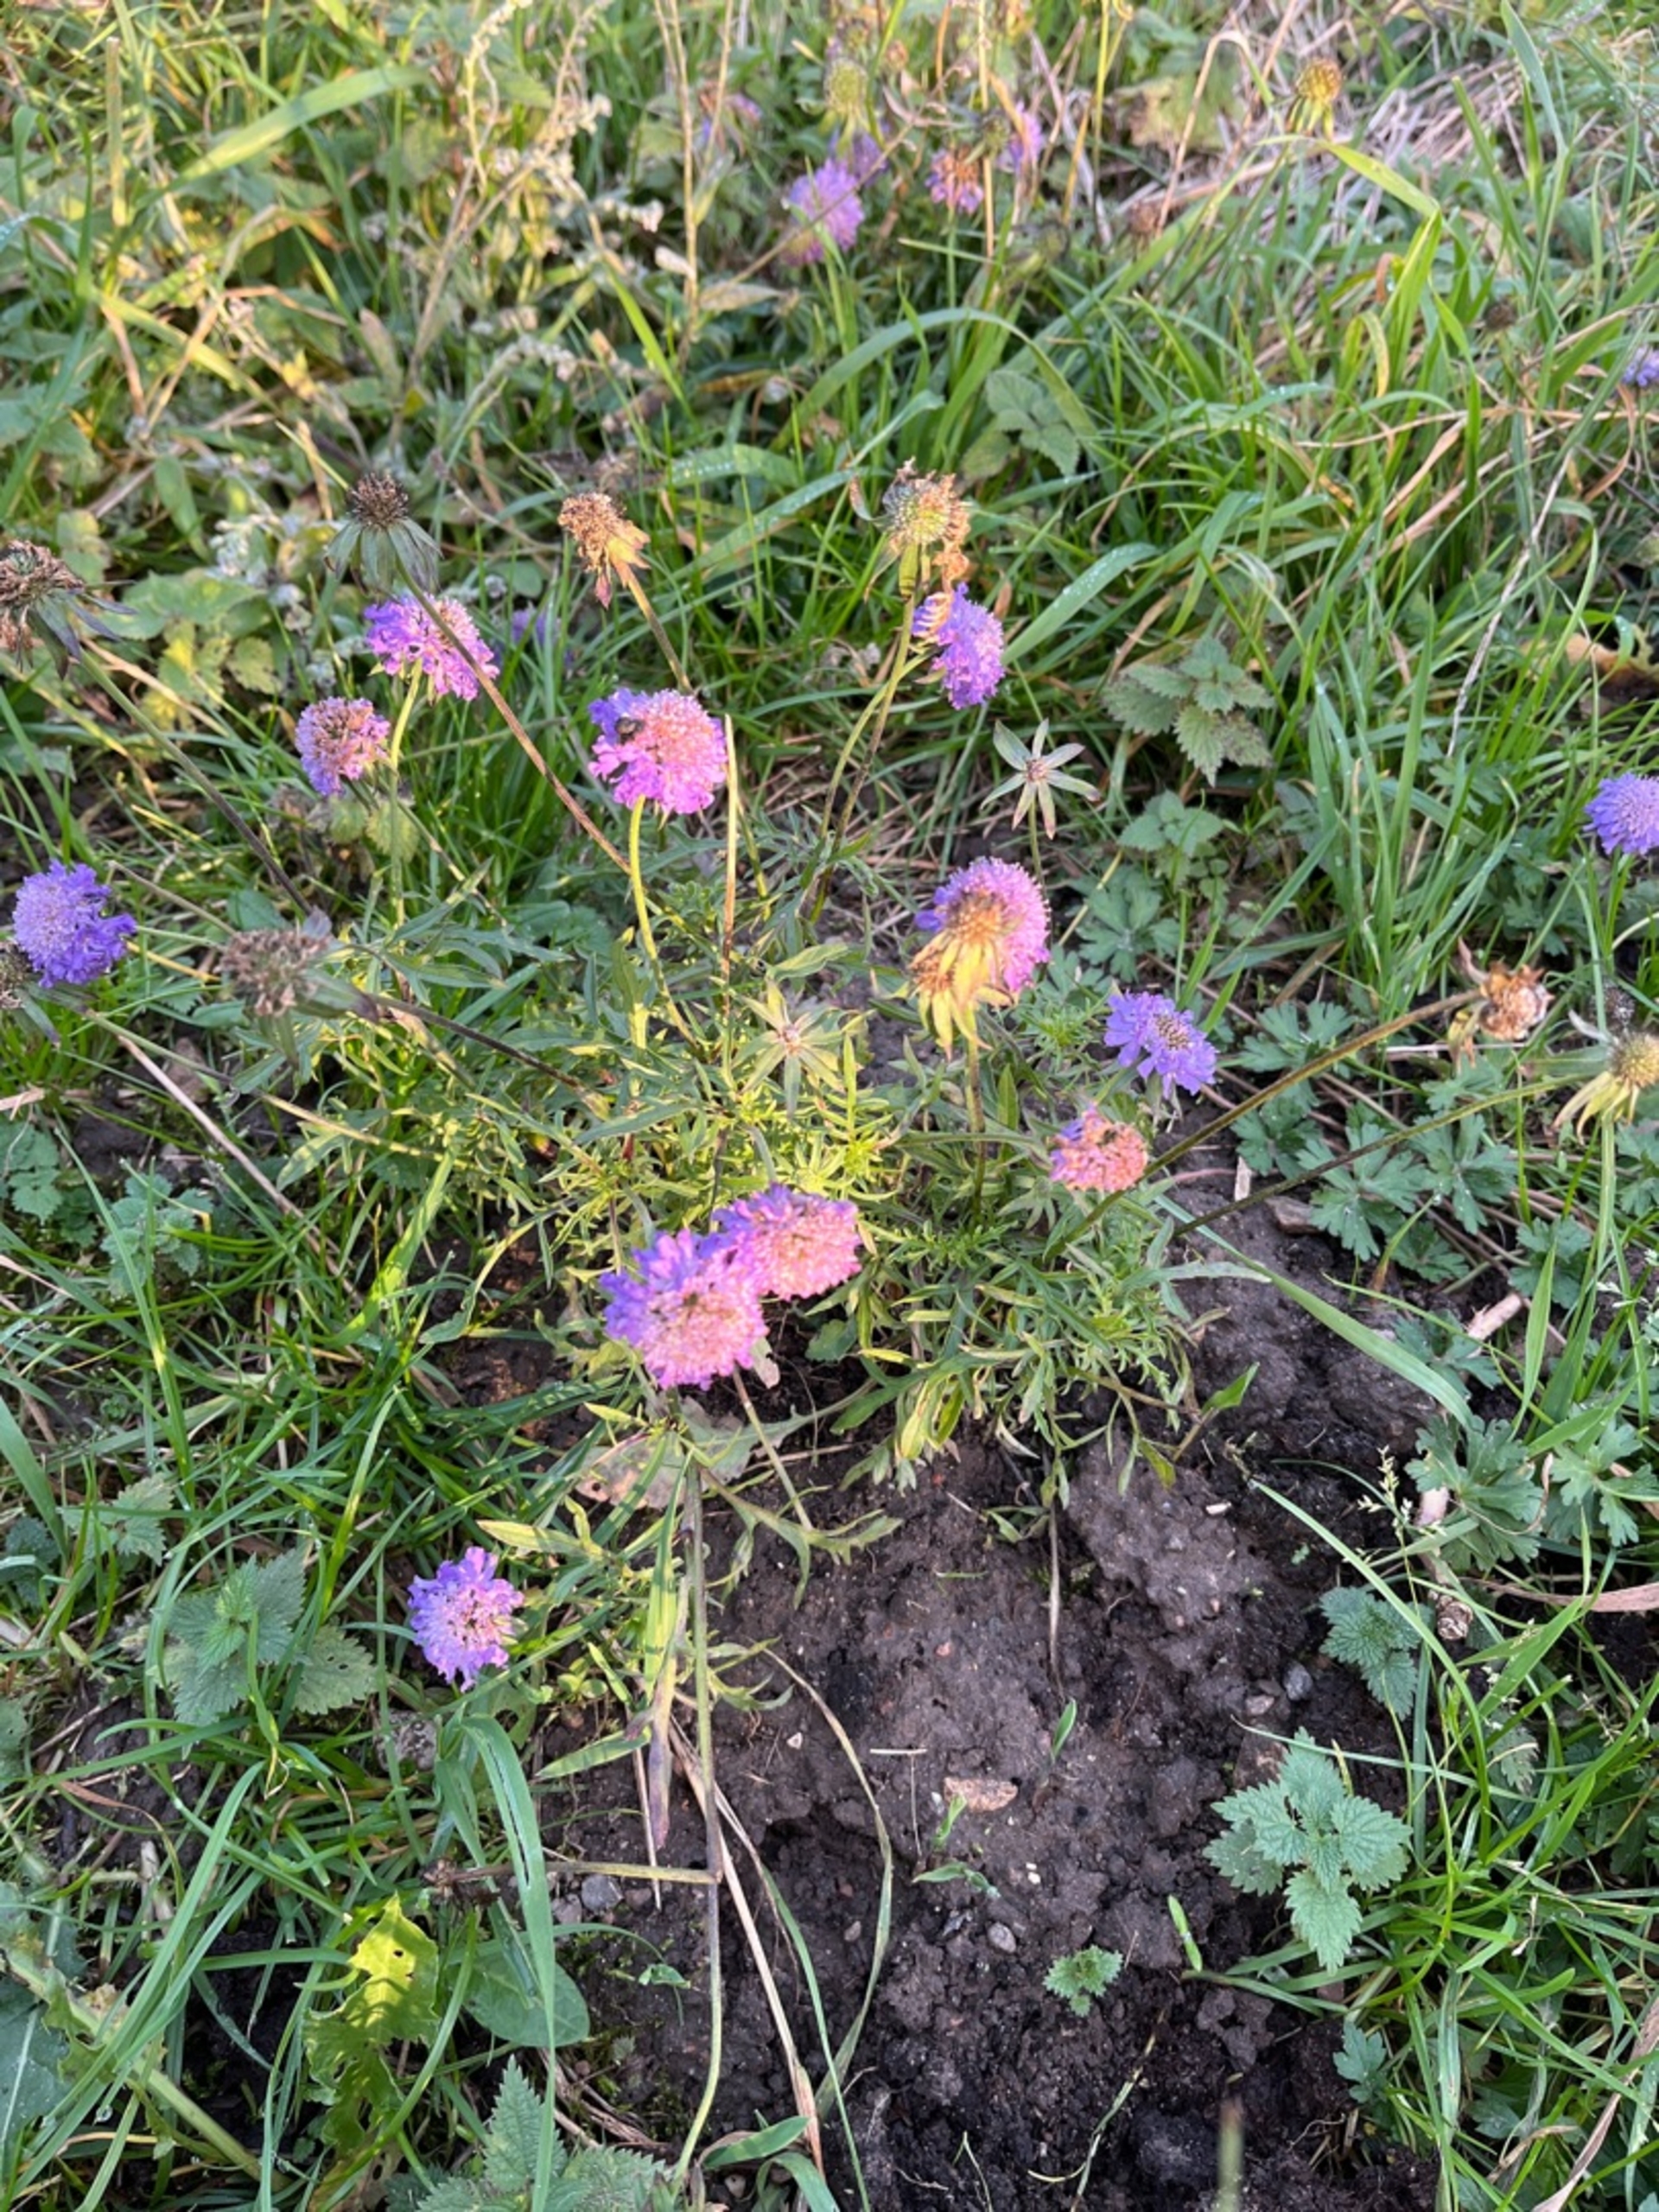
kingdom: Plantae
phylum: Tracheophyta
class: Magnoliopsida
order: Dipsacales
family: Caprifoliaceae
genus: Scabiosa
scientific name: Scabiosa columbaria
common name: Due-skabiose
